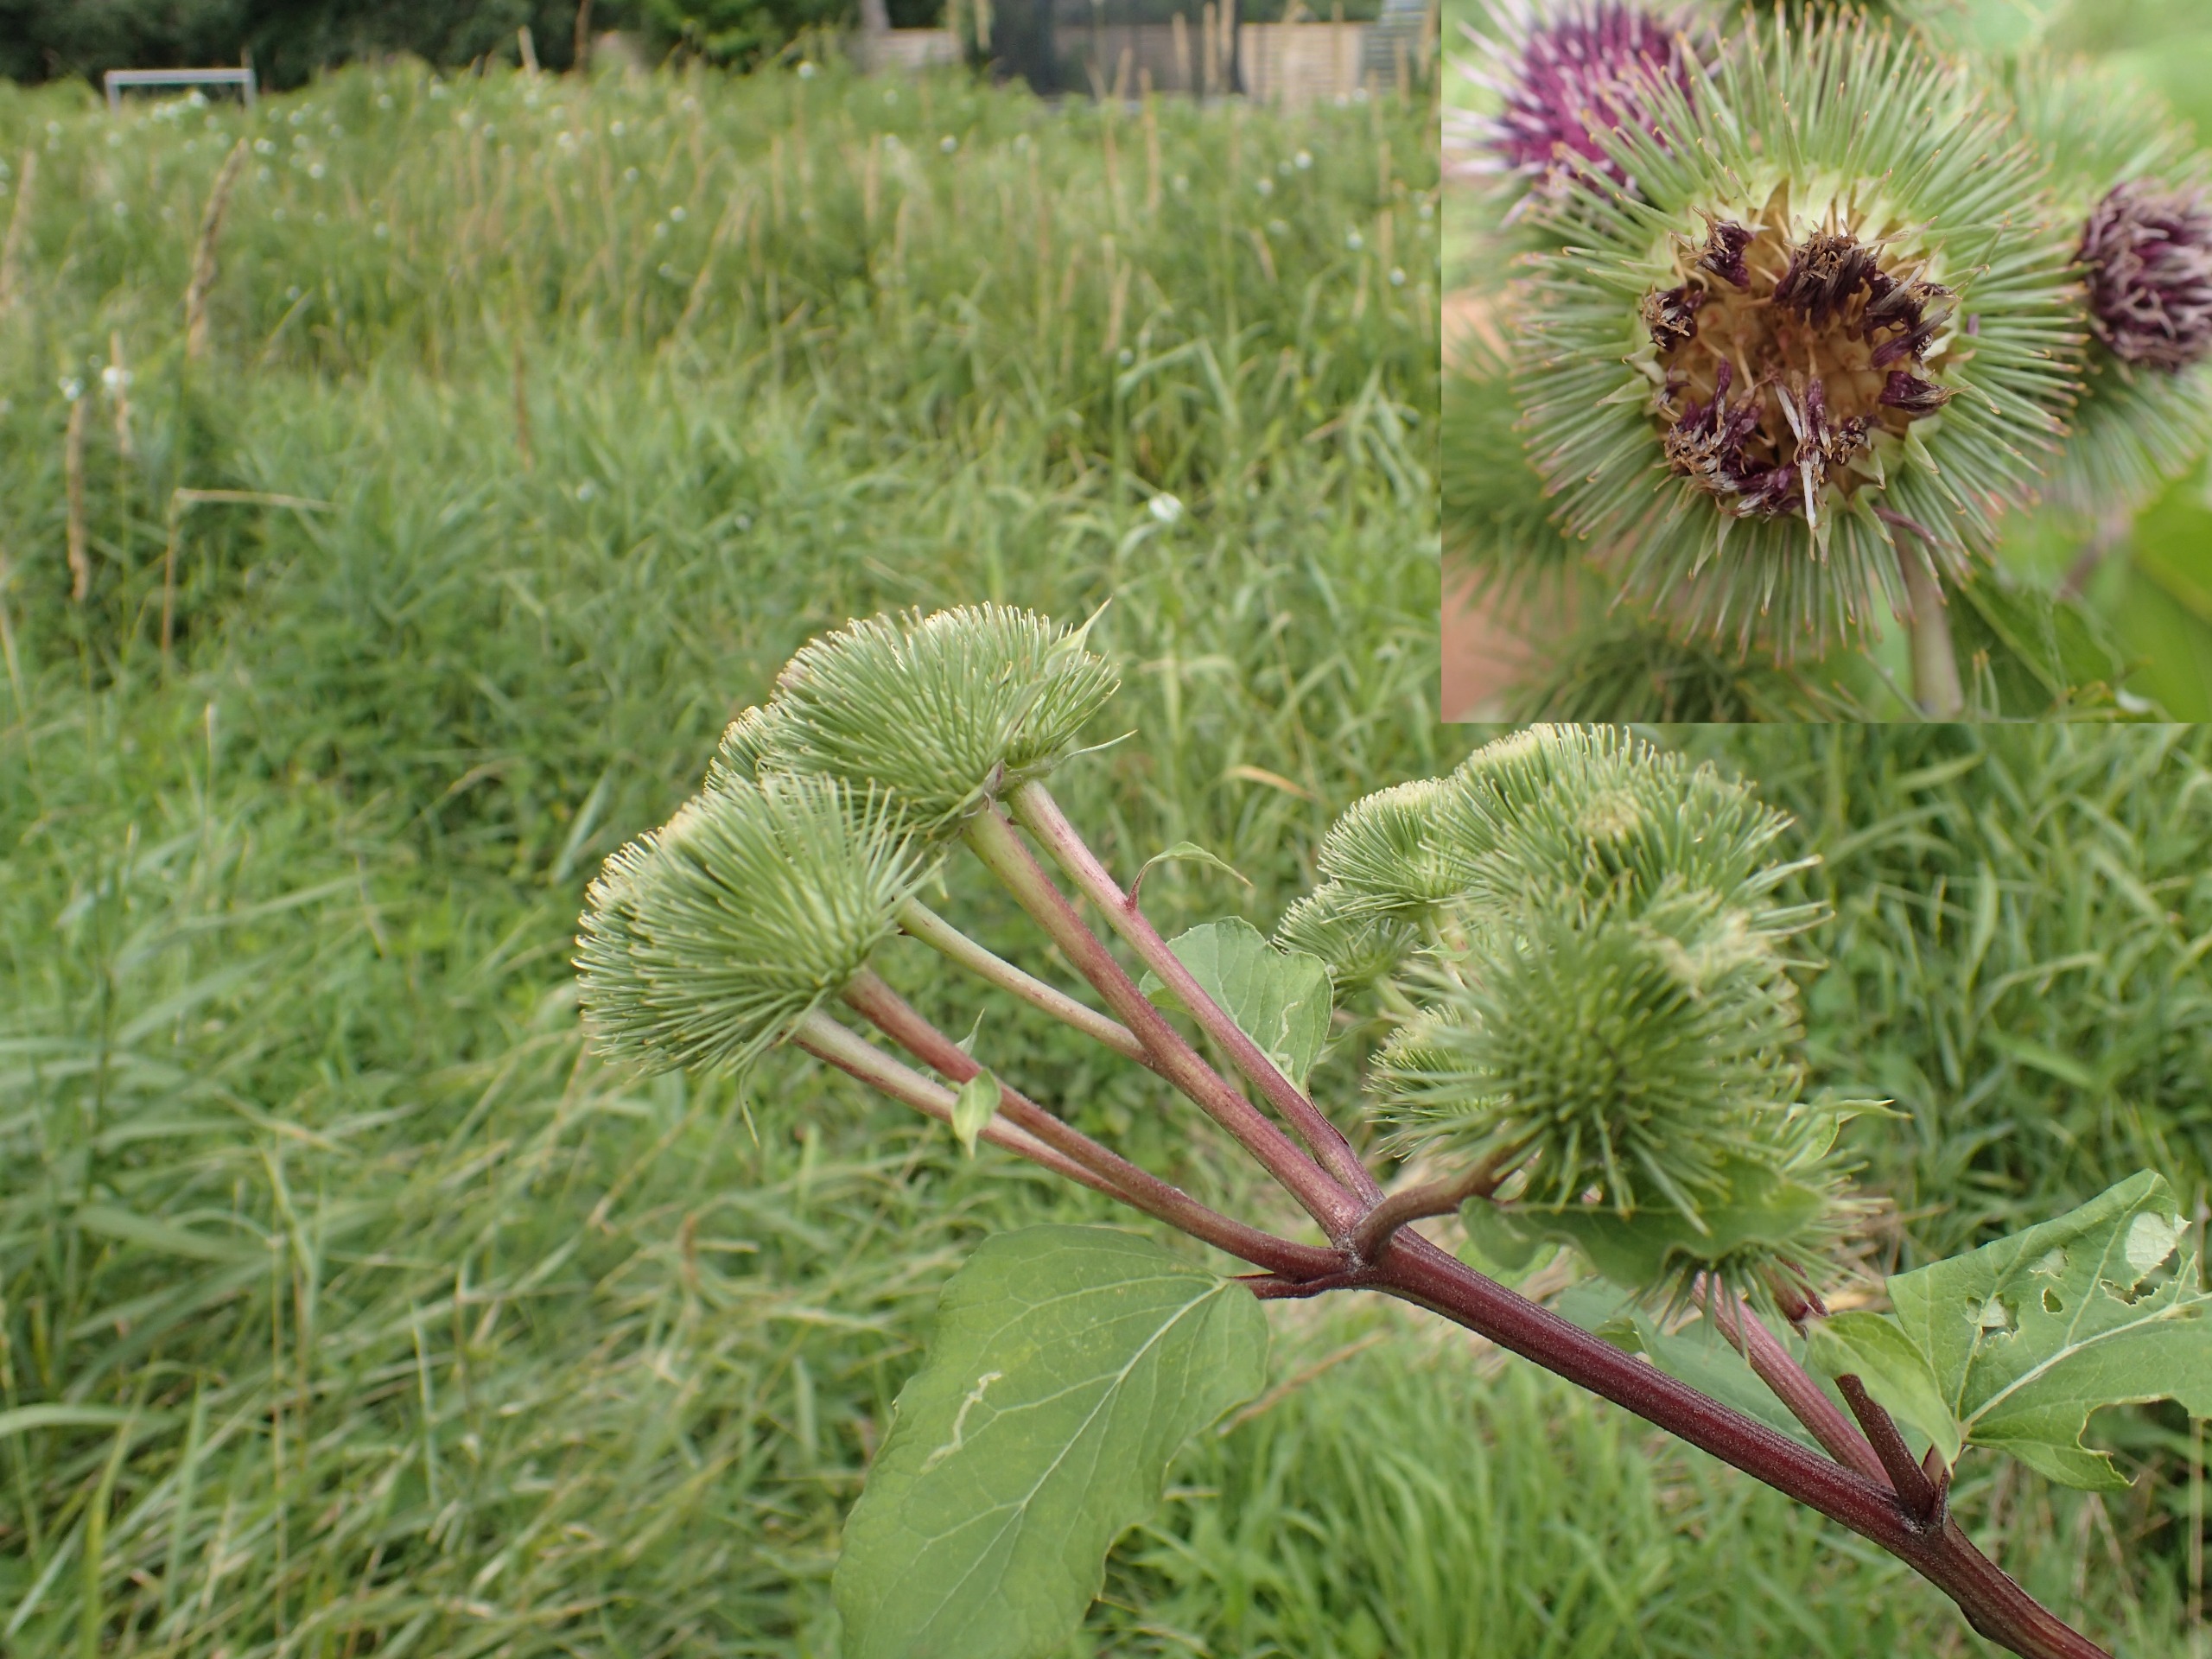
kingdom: Plantae
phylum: Tracheophyta
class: Magnoliopsida
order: Asterales
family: Asteraceae
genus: Arctium
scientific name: Arctium lappa
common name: Glat burre
